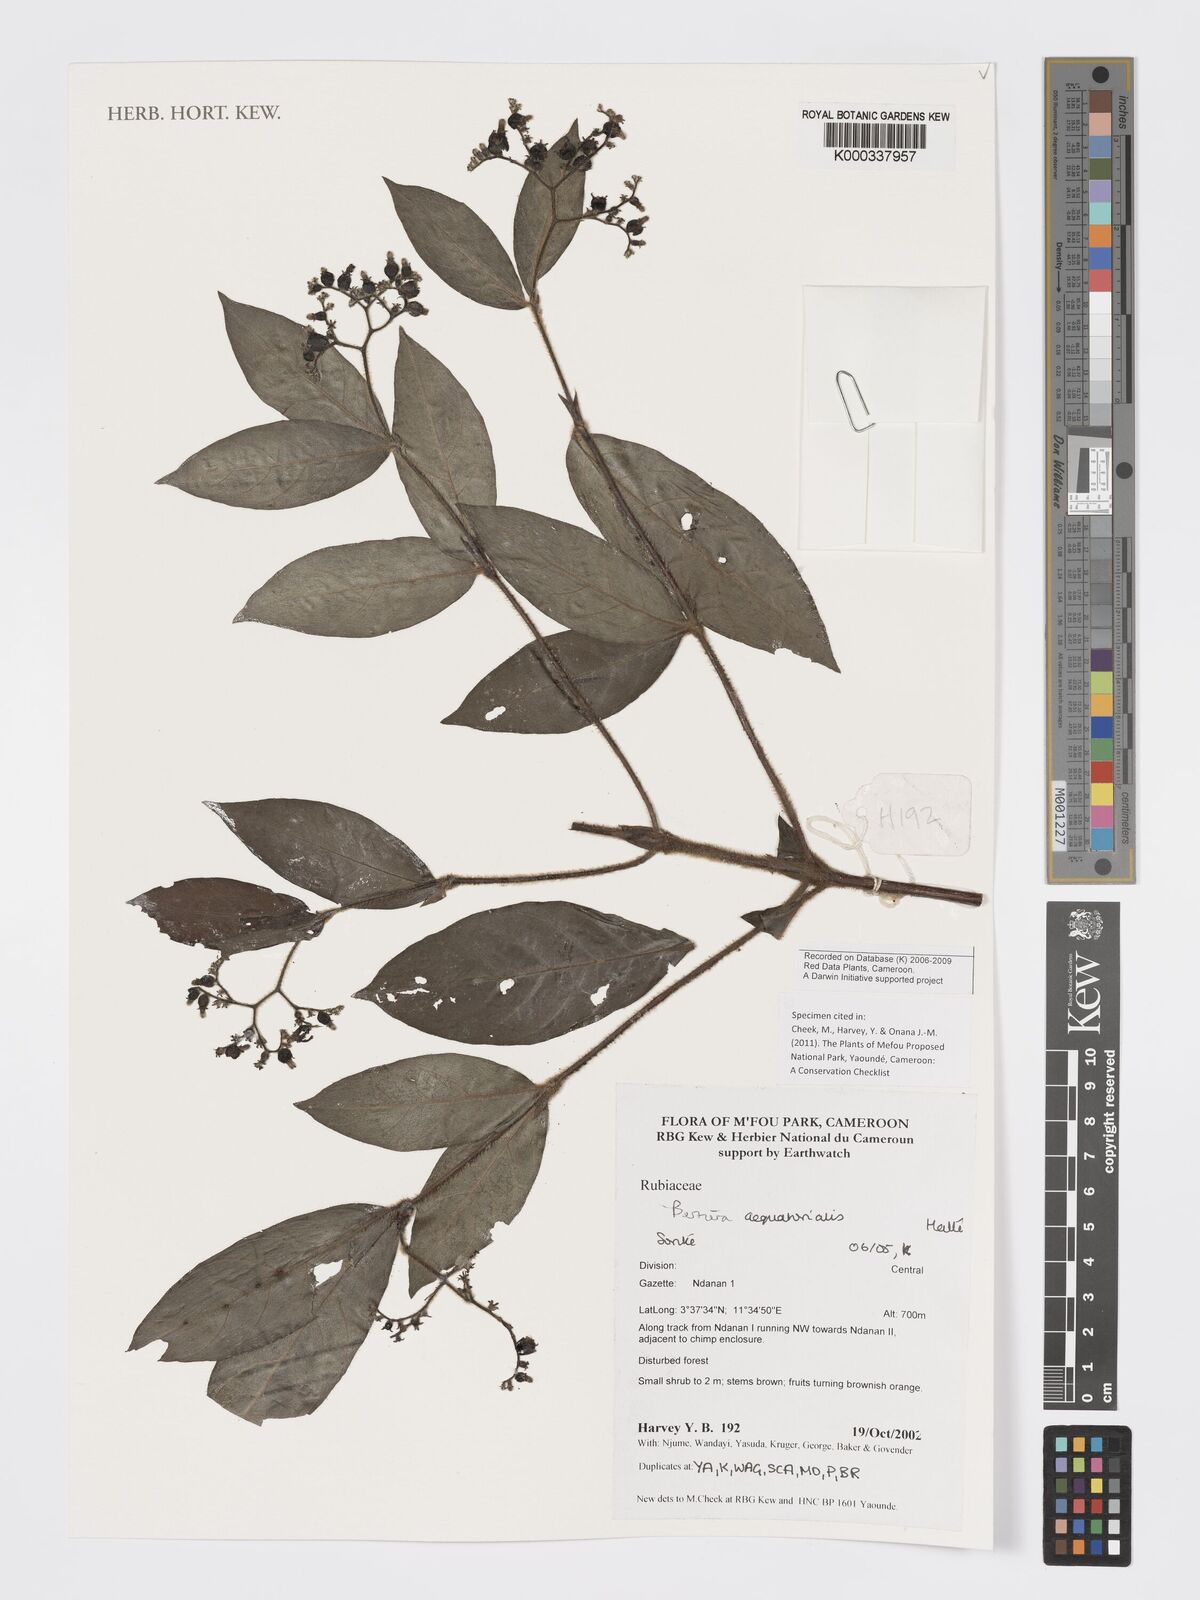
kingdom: Plantae
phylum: Tracheophyta
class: Magnoliopsida
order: Gentianales
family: Rubiaceae
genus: Bertiera
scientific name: Bertiera
